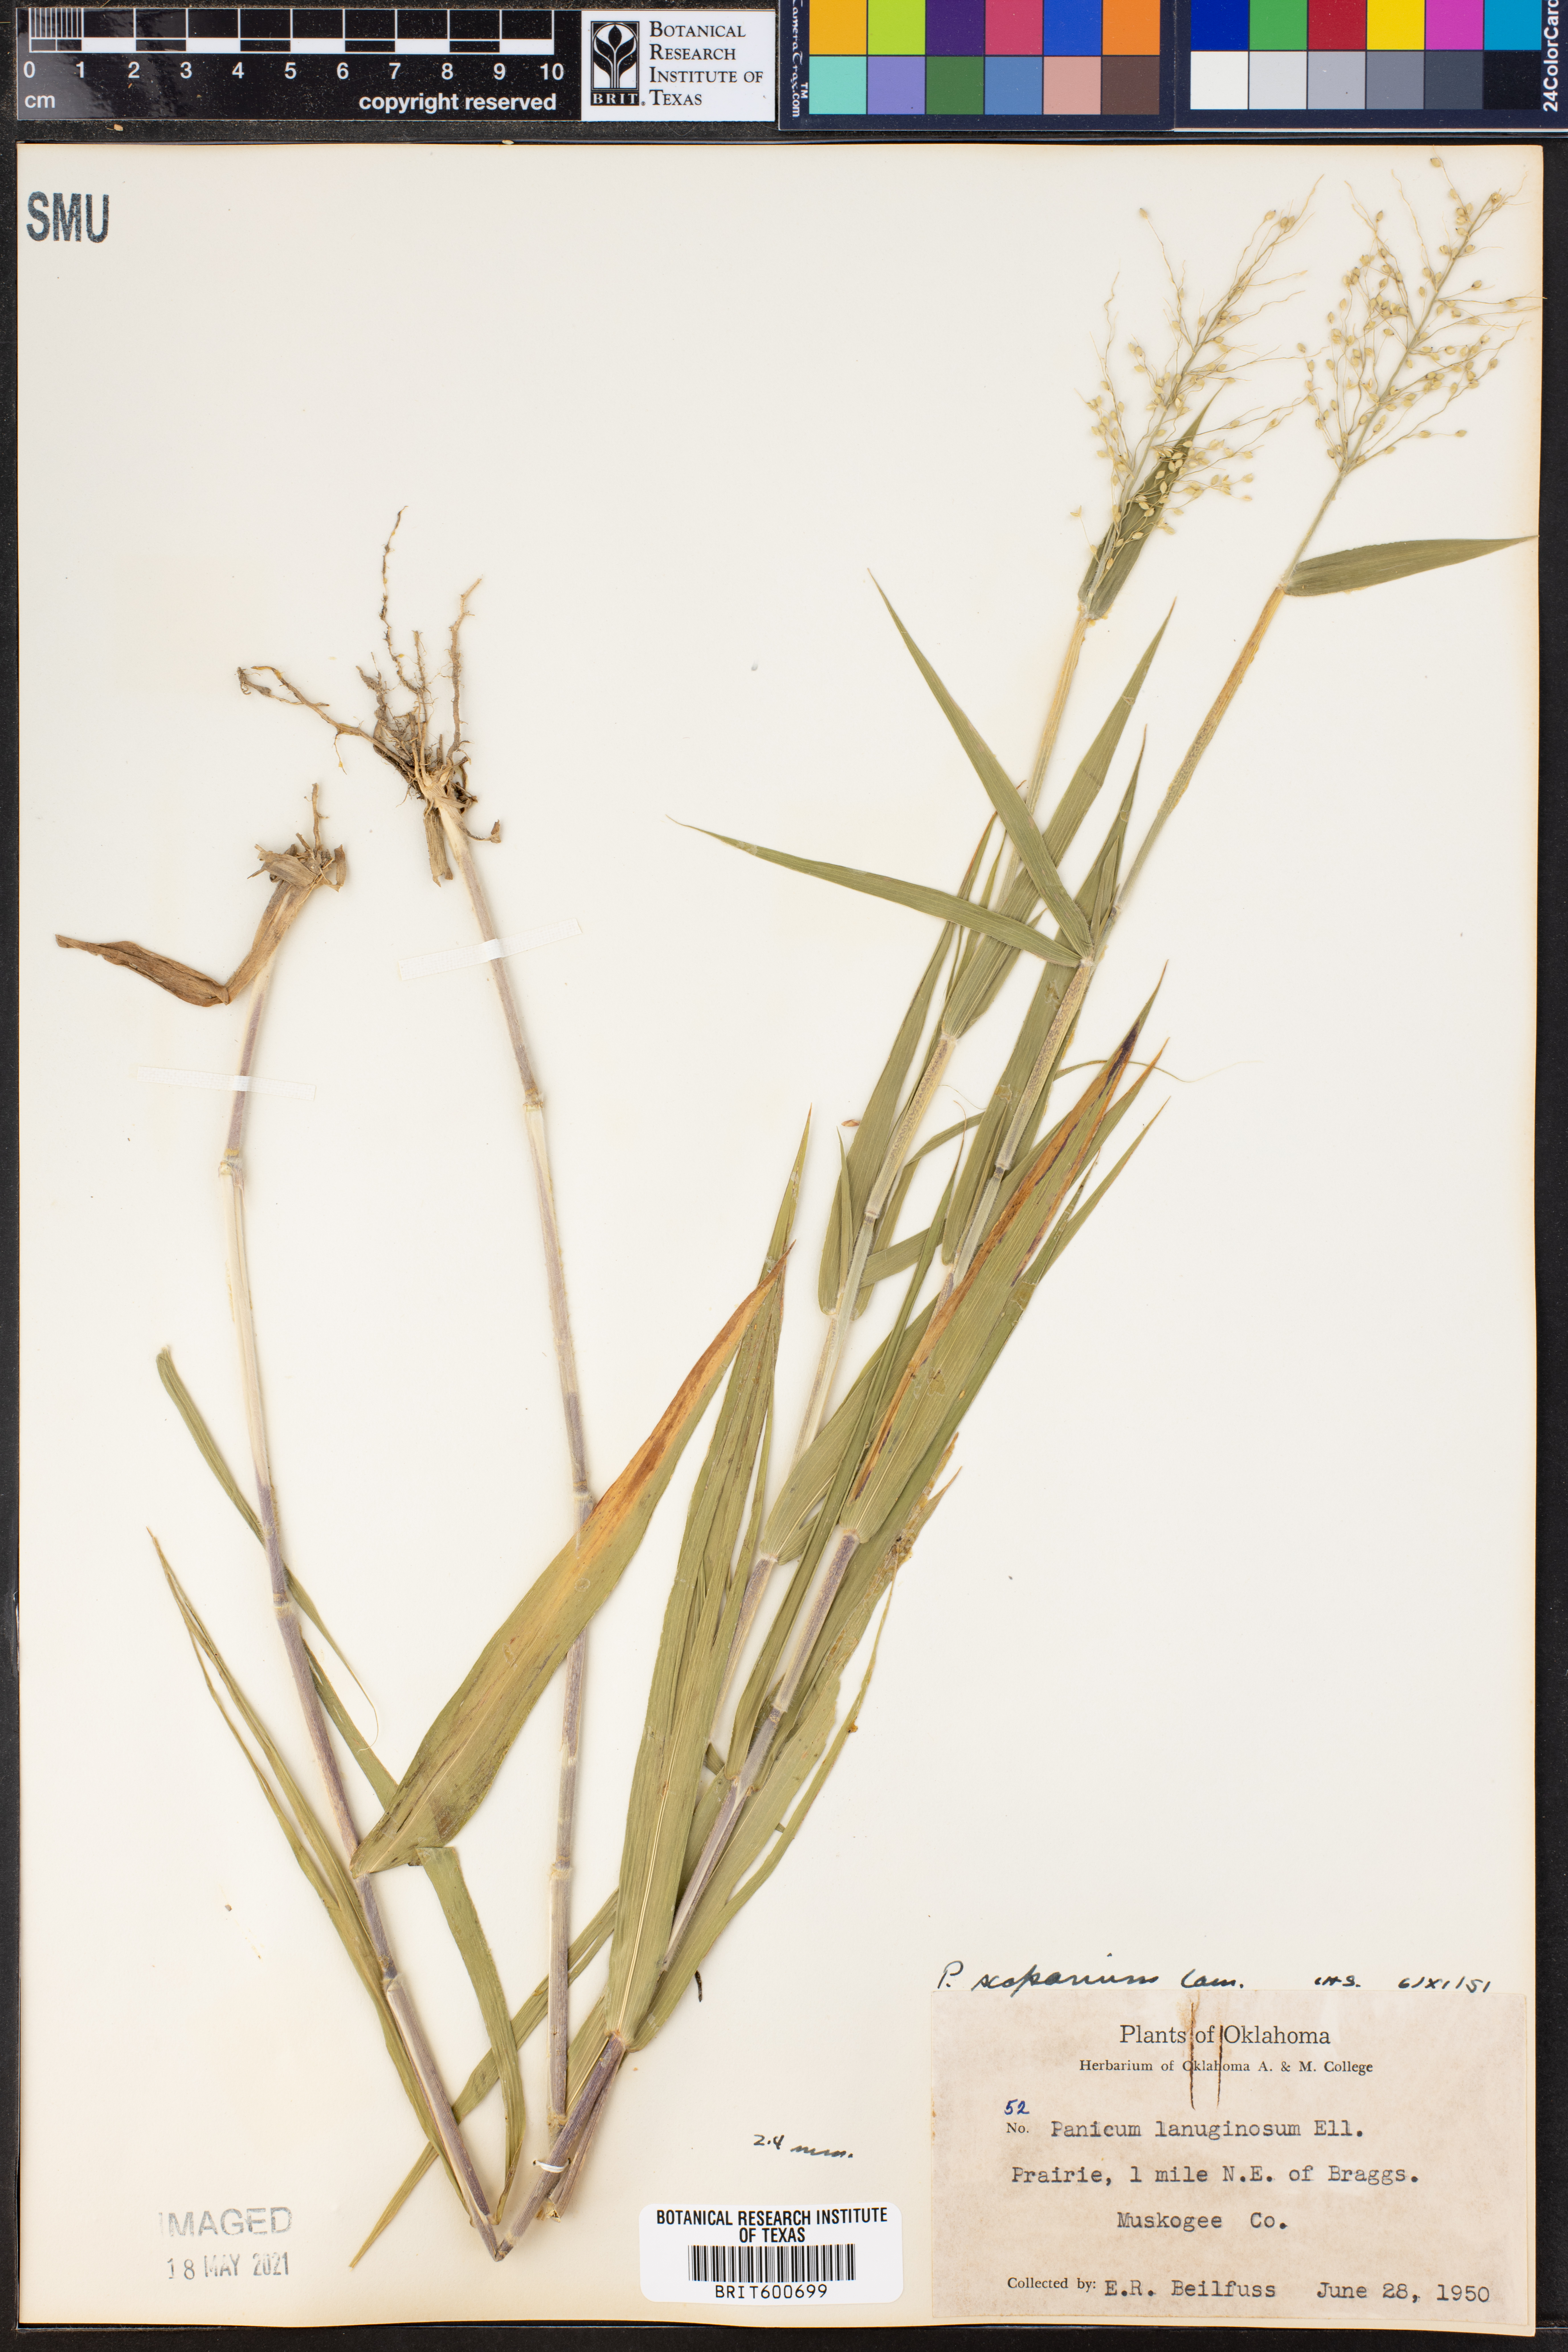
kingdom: Plantae
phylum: Tracheophyta
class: Liliopsida
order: Poales
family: Poaceae
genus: Dichanthelium
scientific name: Dichanthelium scribnerianum
